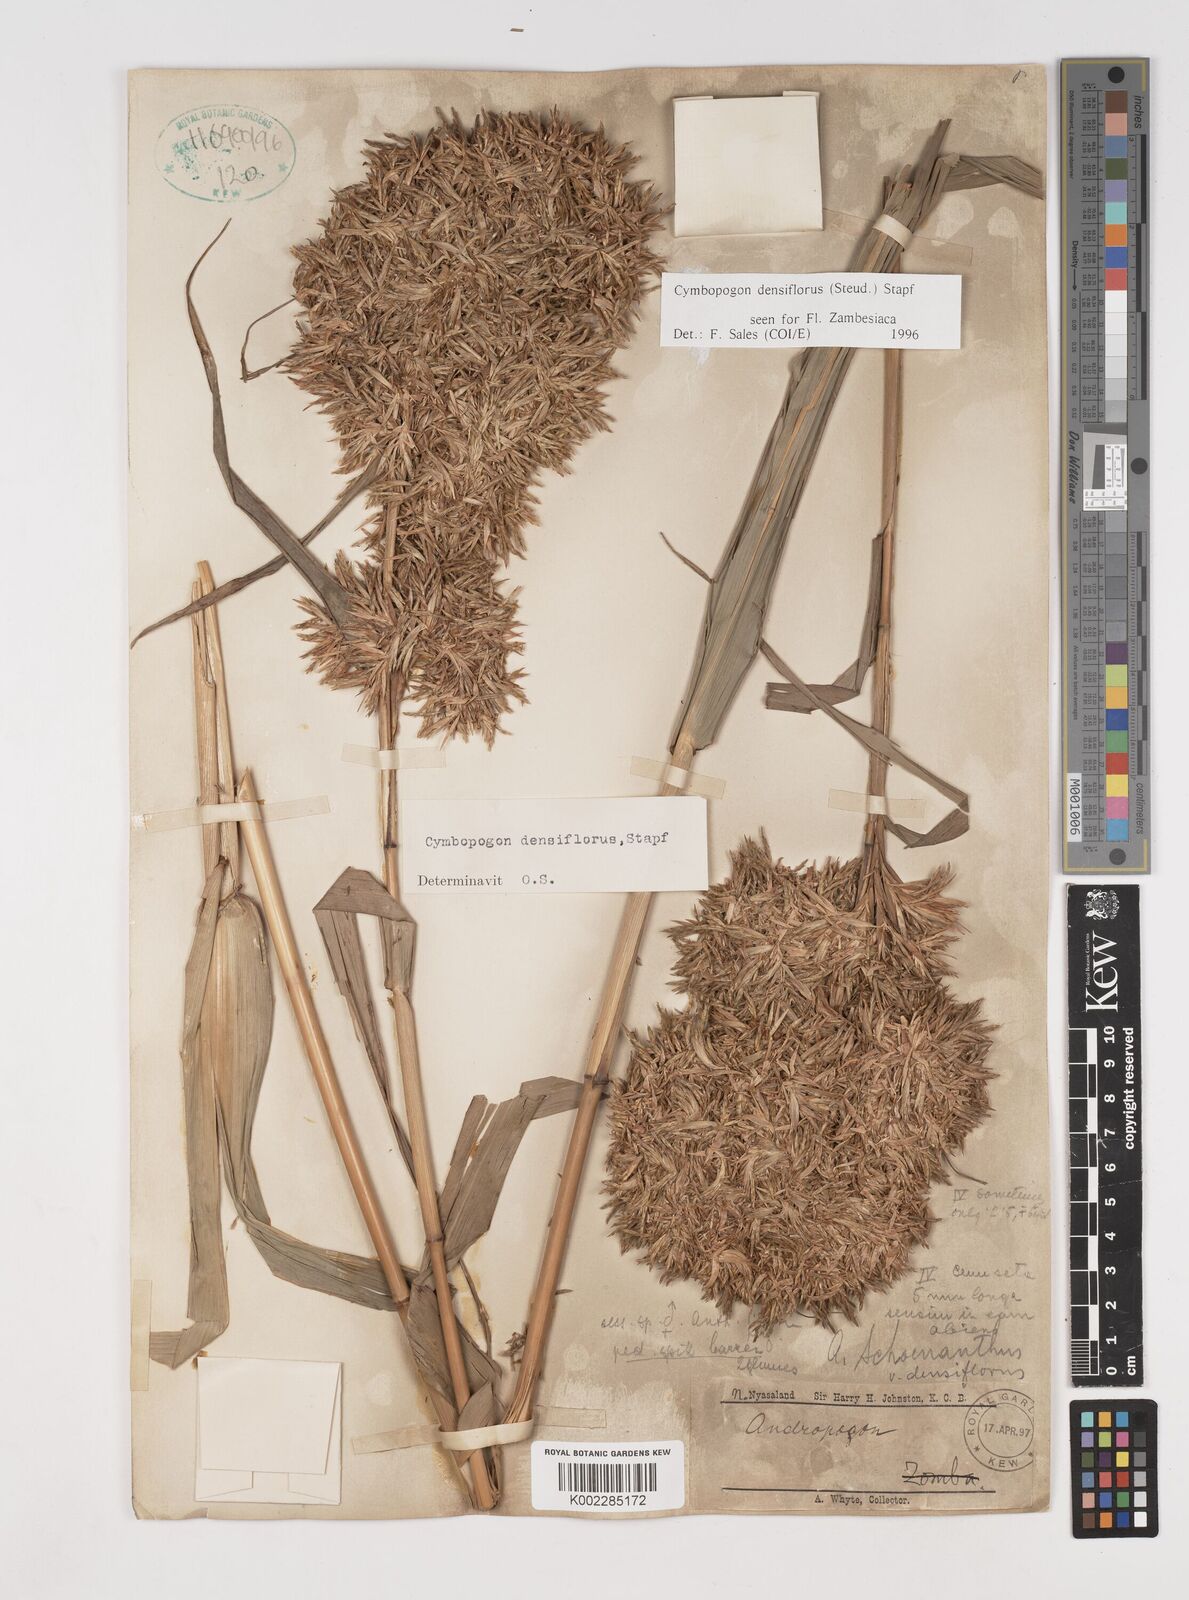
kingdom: Plantae
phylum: Tracheophyta
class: Liliopsida
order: Poales
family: Poaceae
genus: Cymbopogon
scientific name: Cymbopogon densiflorus
